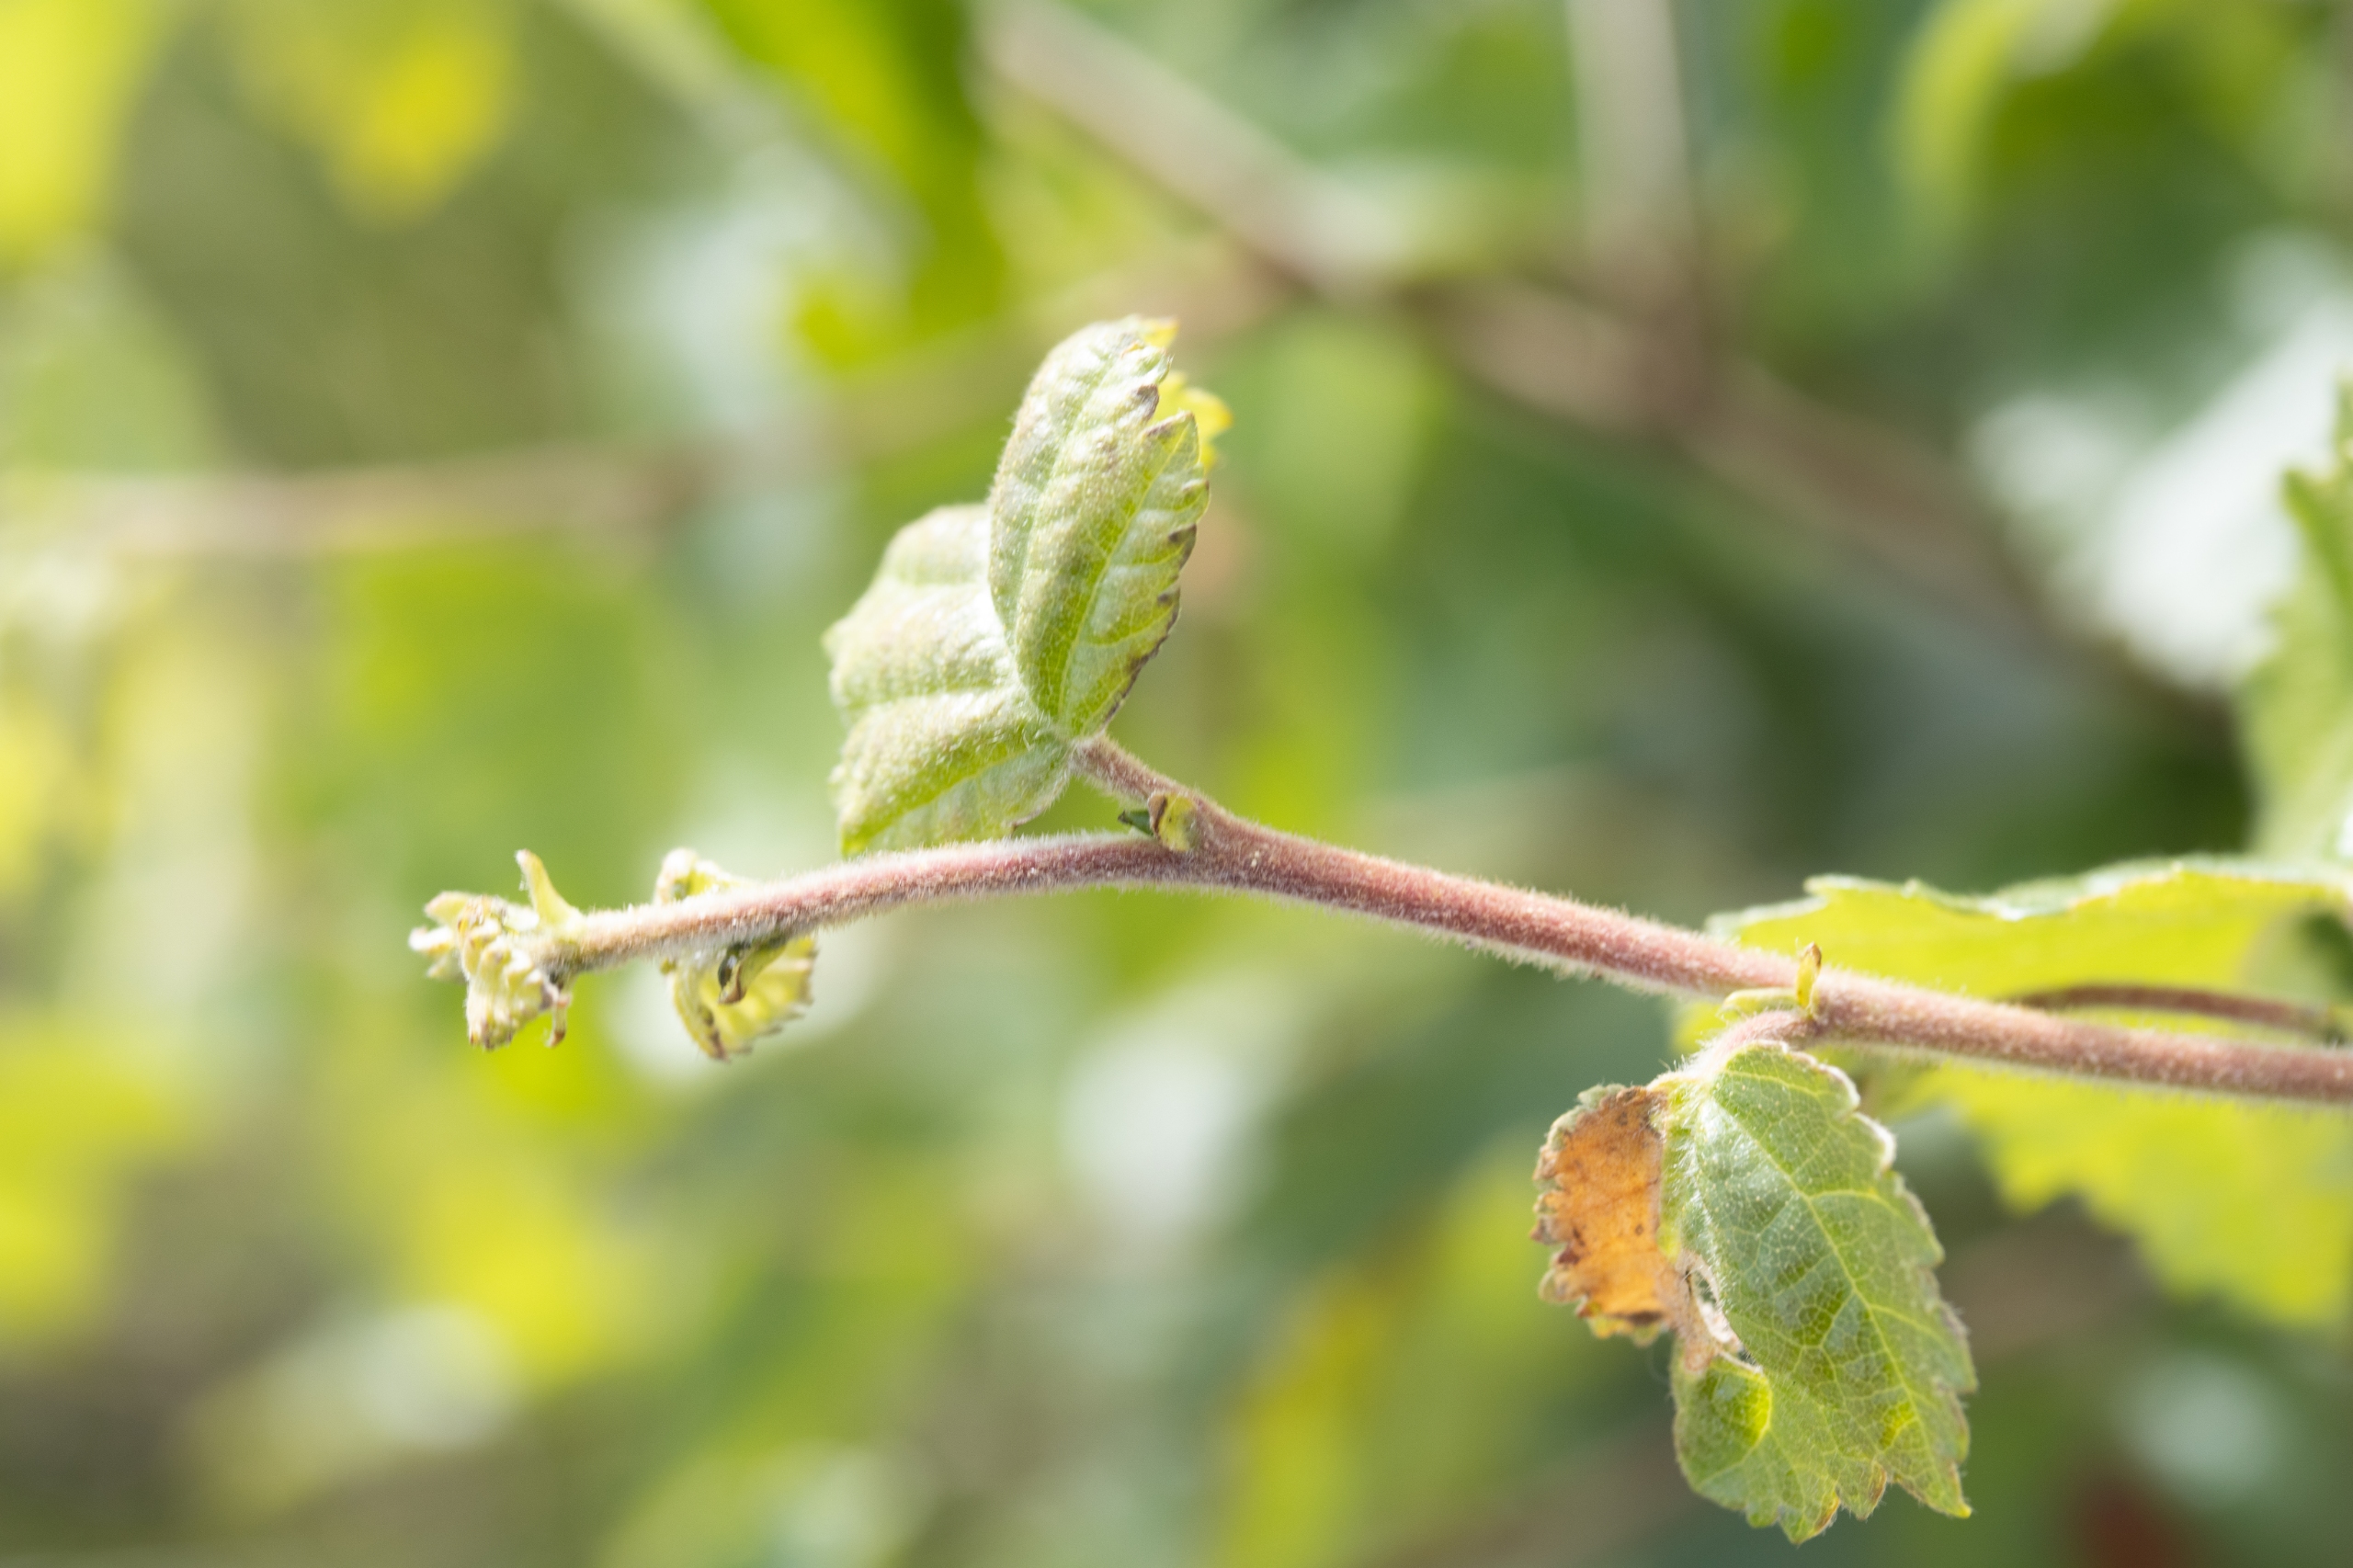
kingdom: Plantae
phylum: Tracheophyta
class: Magnoliopsida
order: Fagales
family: Betulaceae
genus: Betula
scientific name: Betula pubescens
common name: Dun-birk
